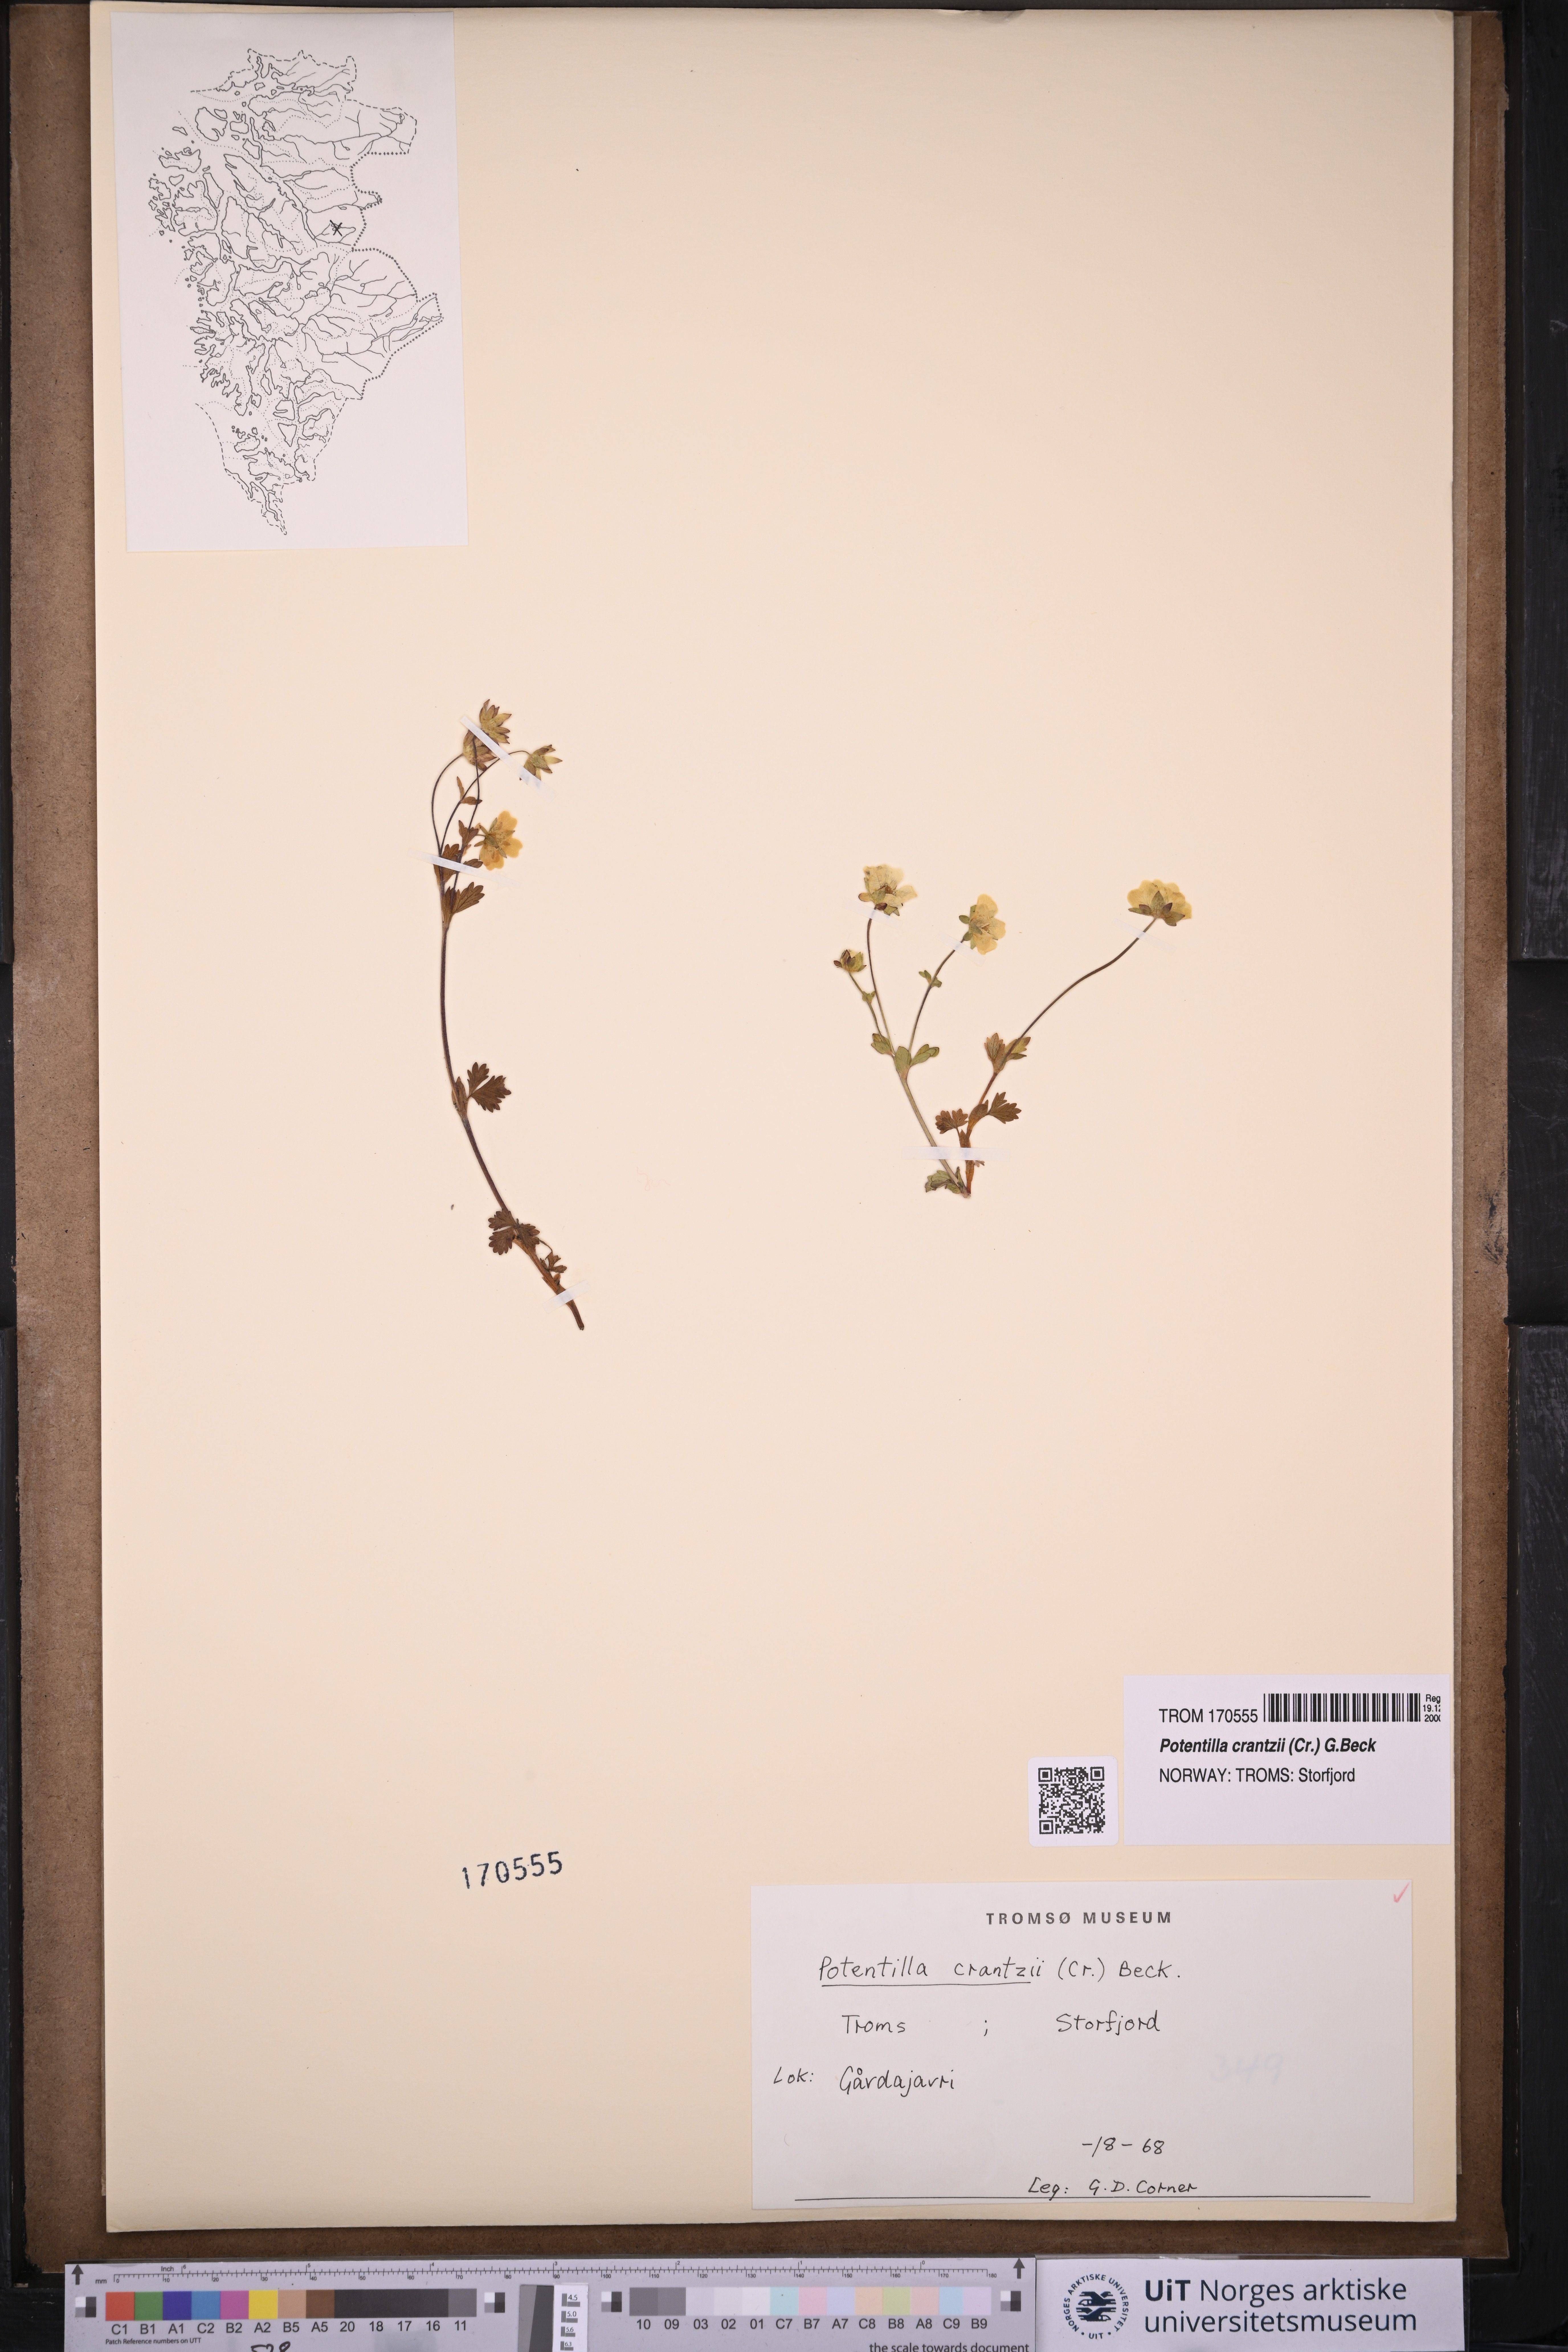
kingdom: Plantae
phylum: Tracheophyta
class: Magnoliopsida
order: Rosales
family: Rosaceae
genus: Potentilla
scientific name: Potentilla crantzii
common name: Alpine cinquefoil
